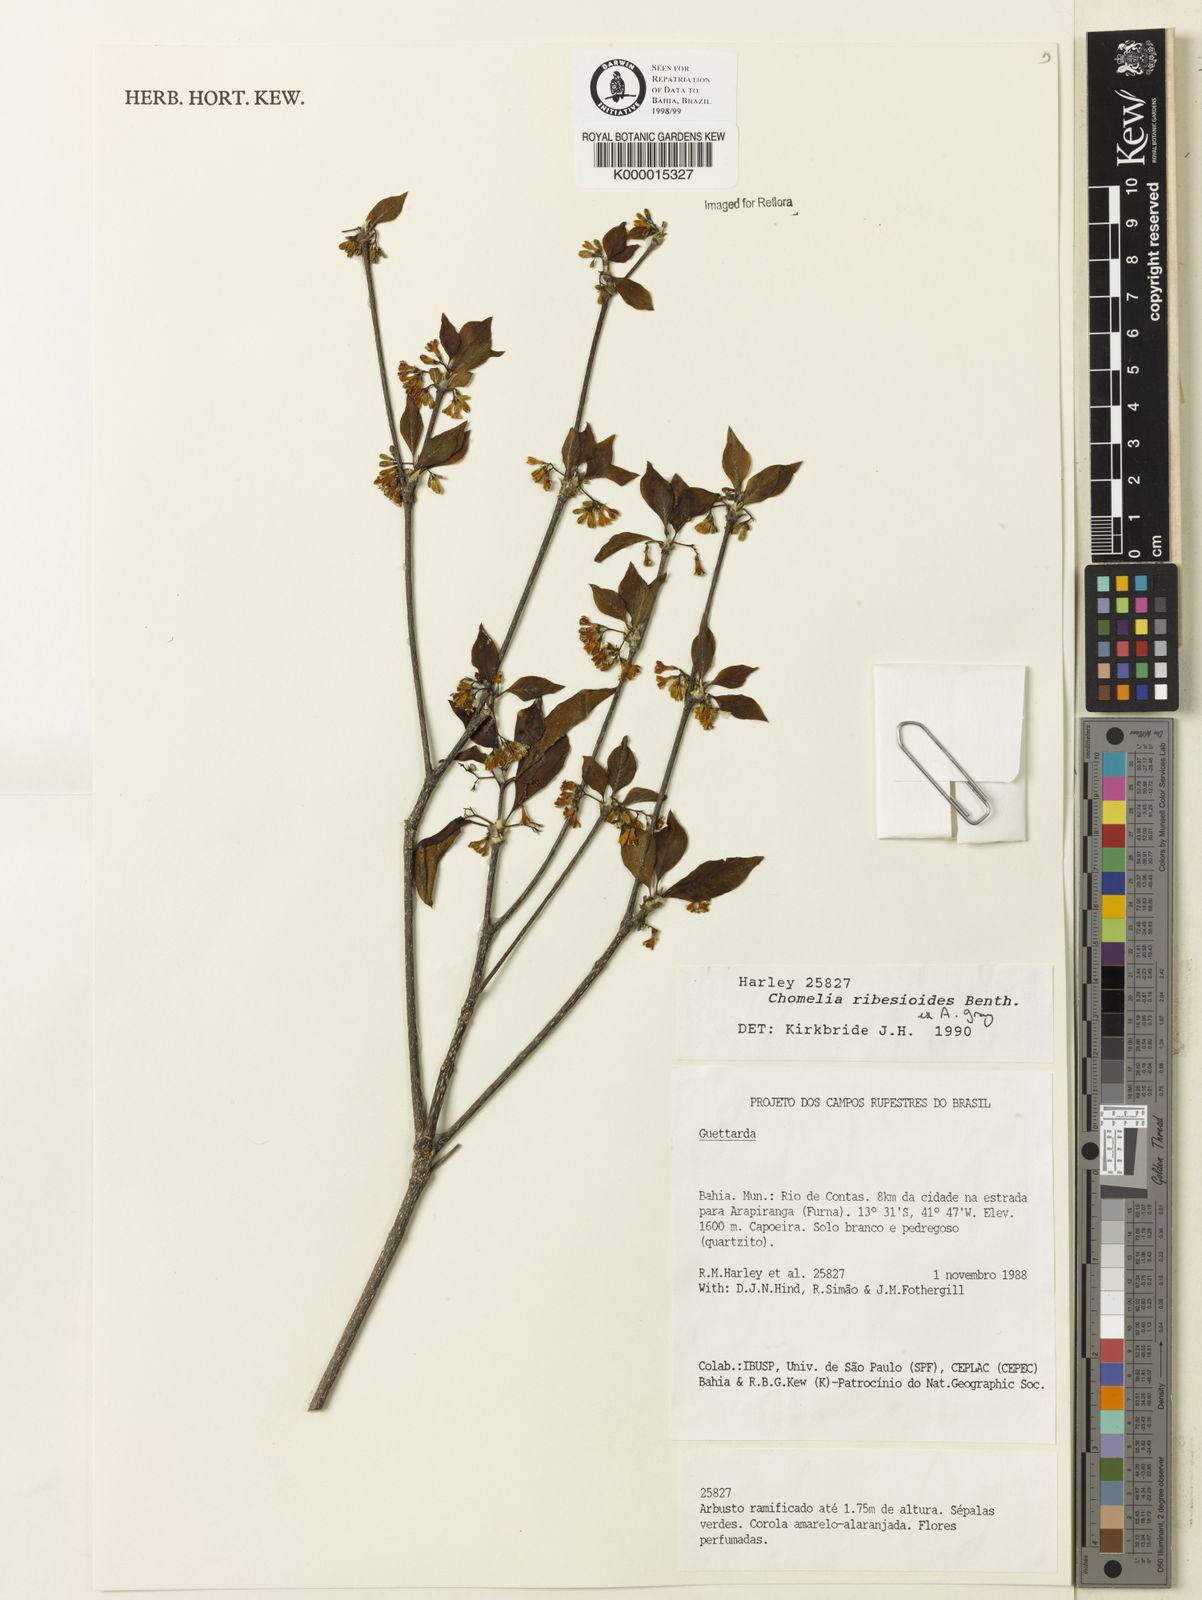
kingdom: Plantae
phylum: Tracheophyta
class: Magnoliopsida
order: Gentianales
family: Rubiaceae
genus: Chomelia
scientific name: Chomelia ribesioides
